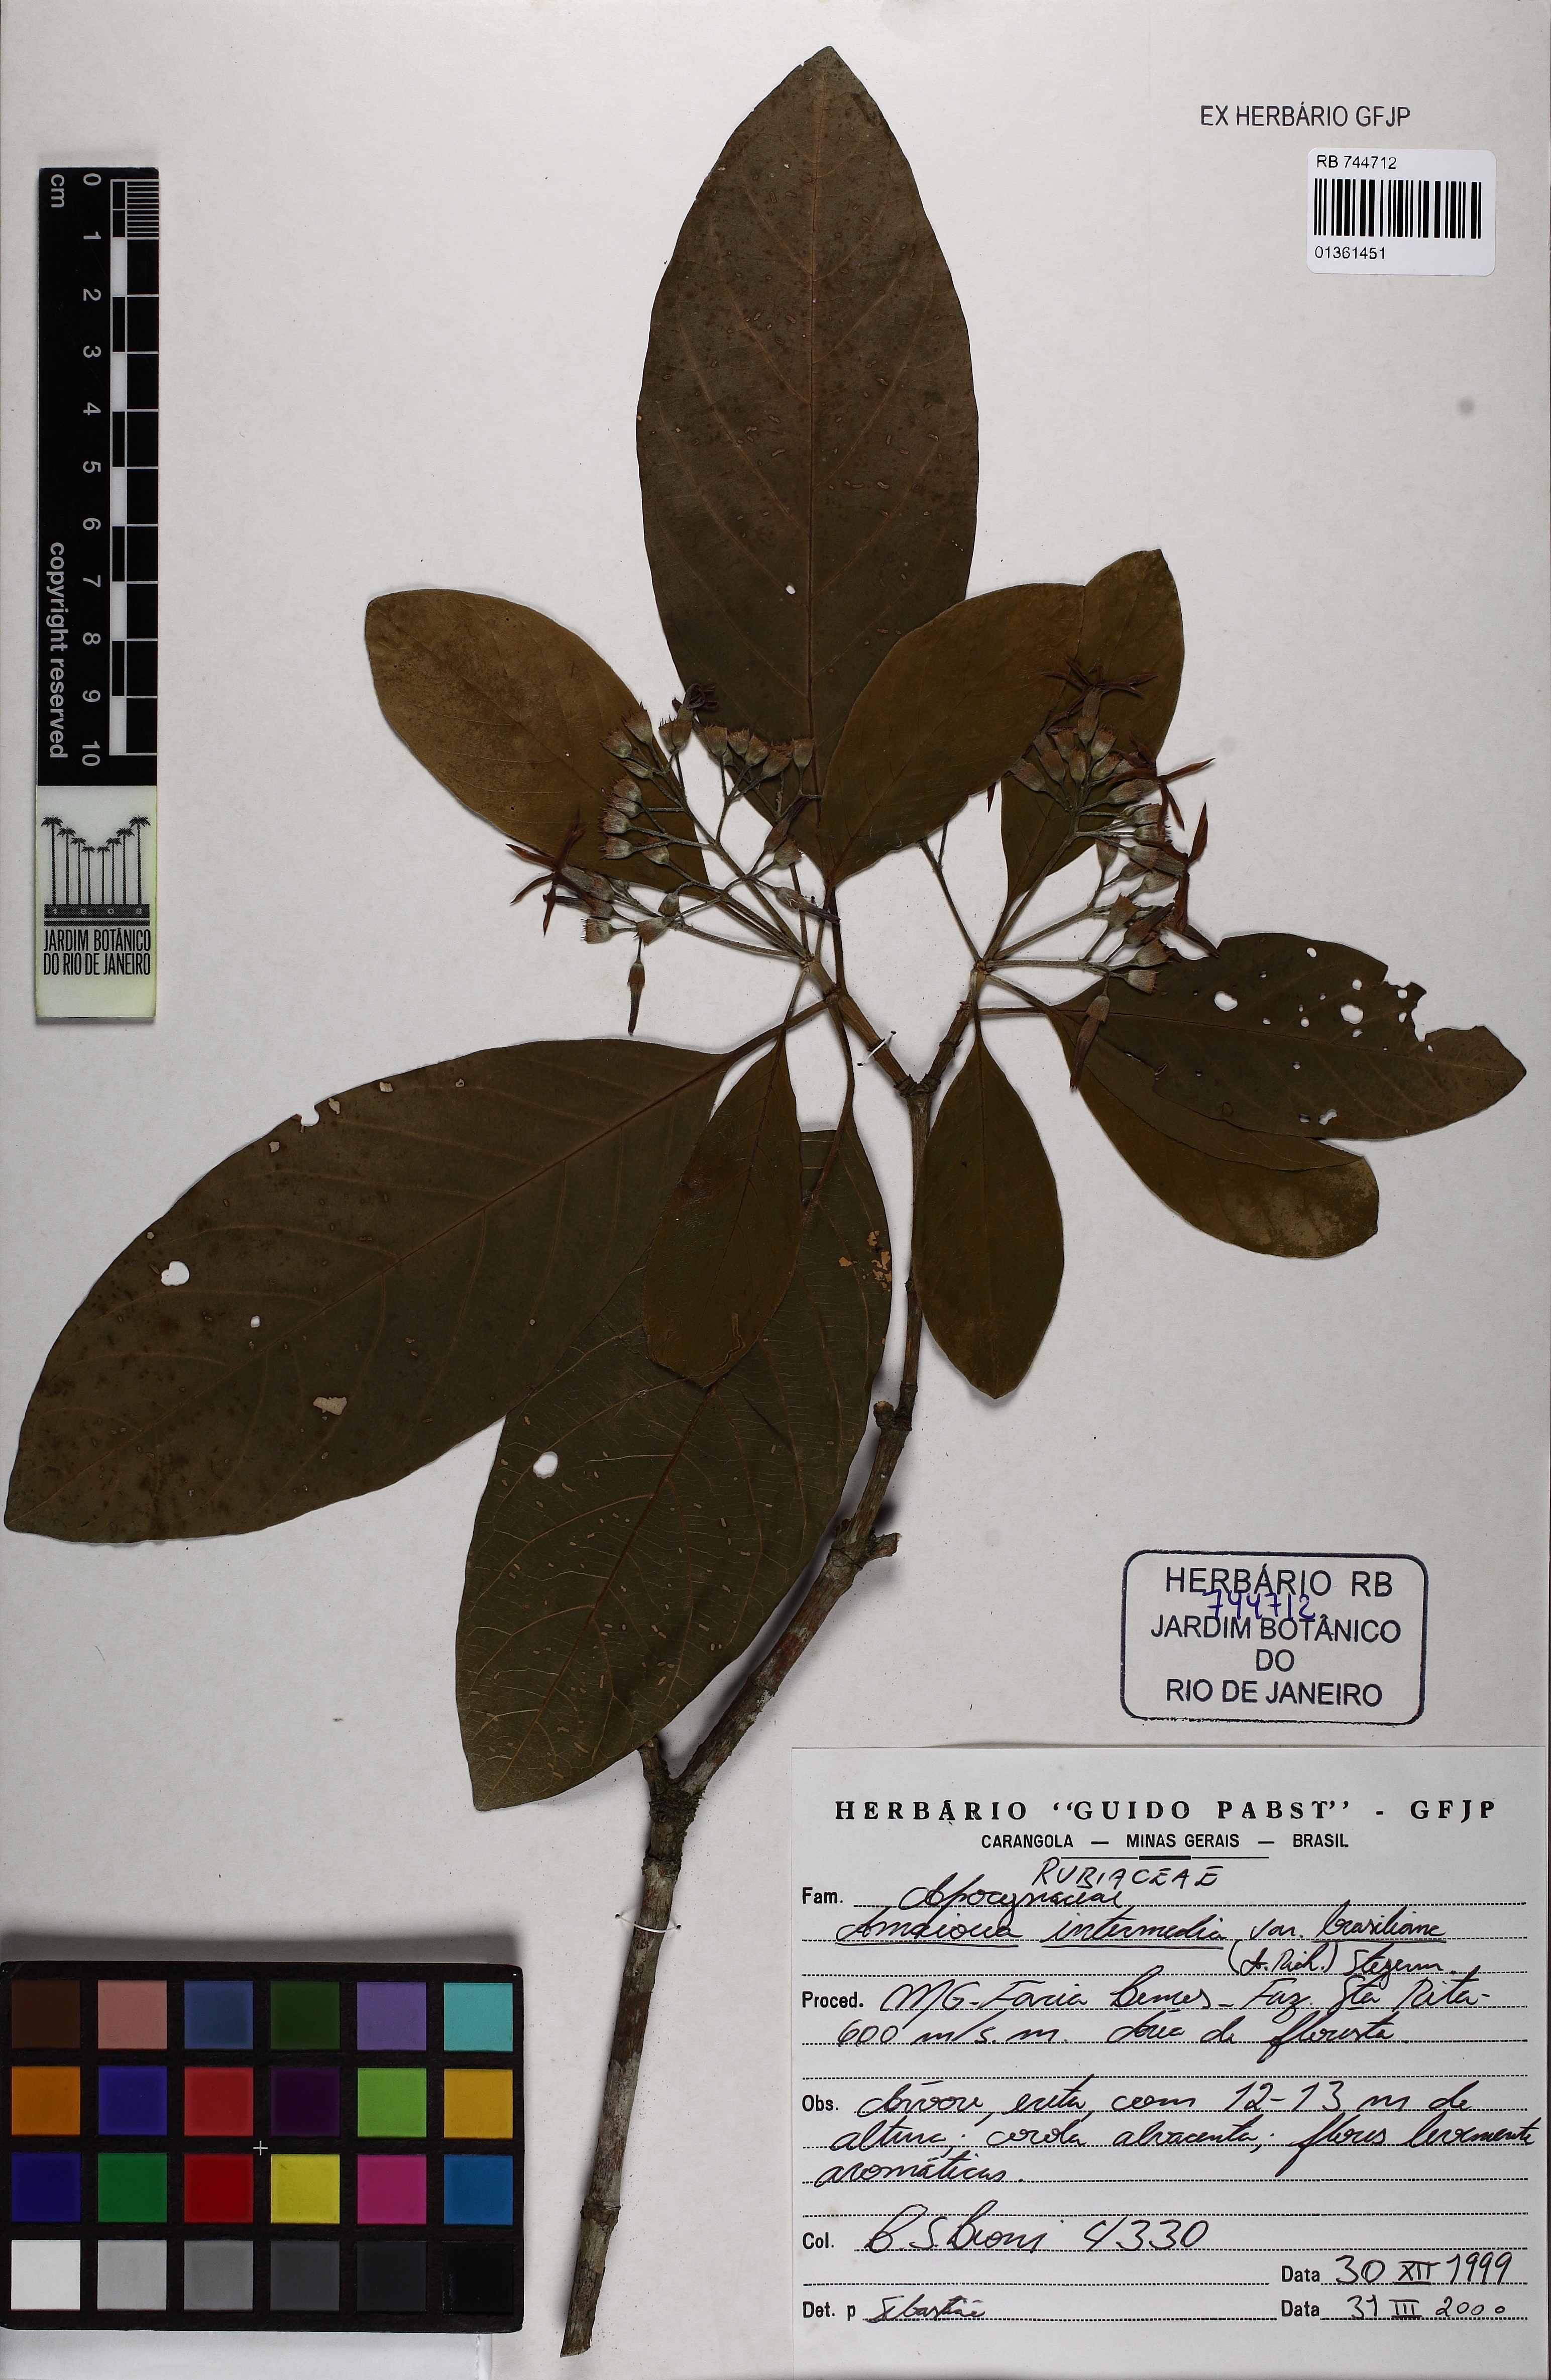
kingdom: Plantae
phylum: Tracheophyta
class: Magnoliopsida
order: Gentianales
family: Rubiaceae
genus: Amaioua
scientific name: Amaioua intermedia
